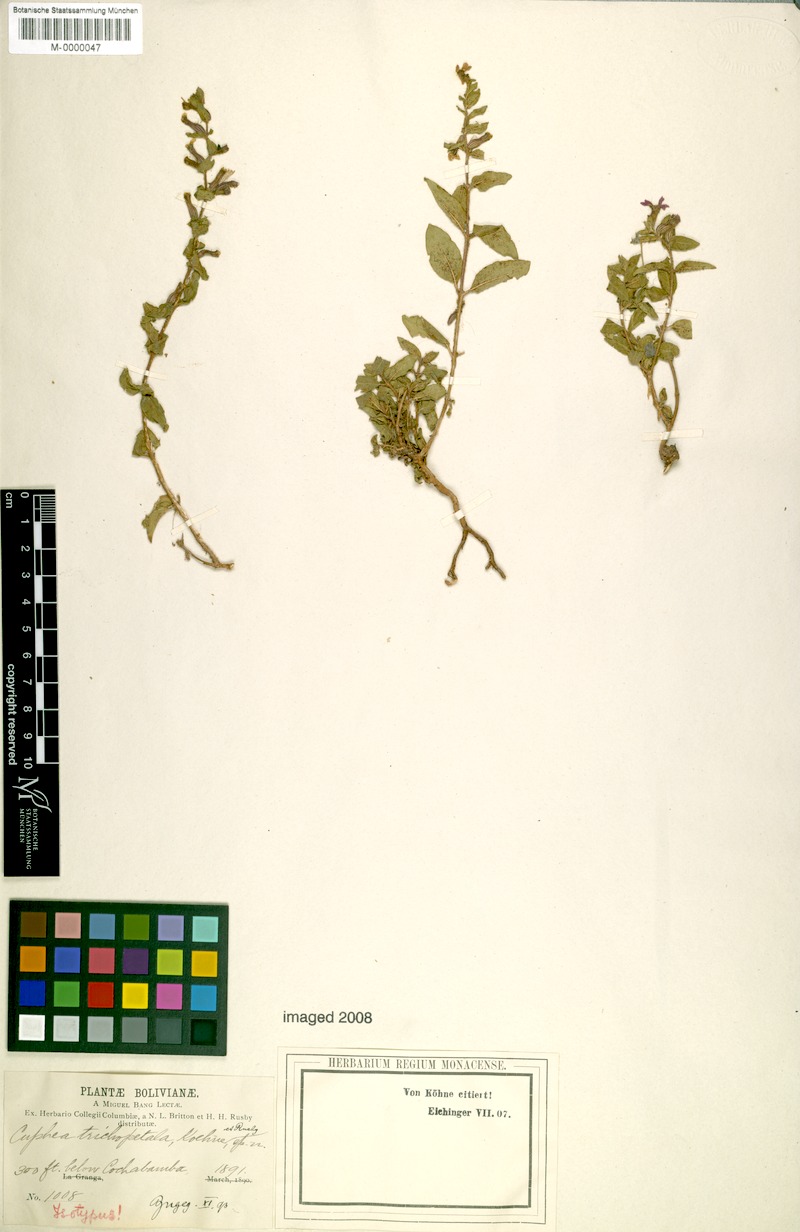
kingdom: Plantae
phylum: Tracheophyta
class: Magnoliopsida
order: Myrtales
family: Lythraceae
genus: Cuphea
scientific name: Cuphea sessiliflora
